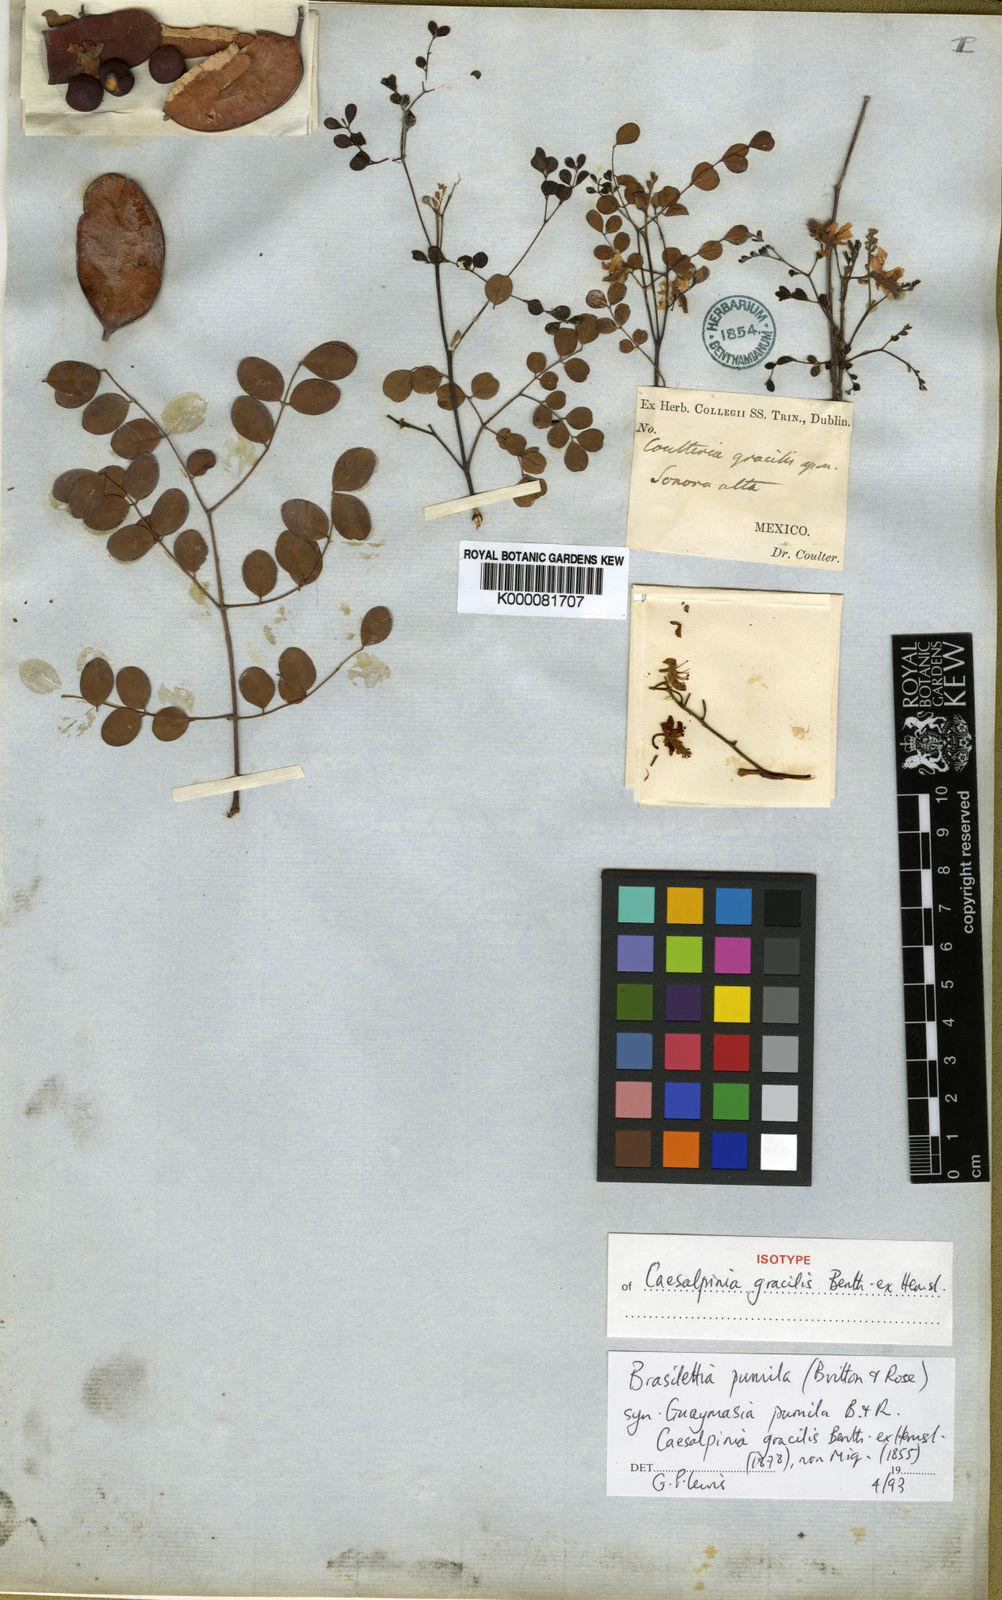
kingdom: Plantae
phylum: Tracheophyta
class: Magnoliopsida
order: Fabales
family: Fabaceae
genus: Coulteria
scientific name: Coulteria pumila
